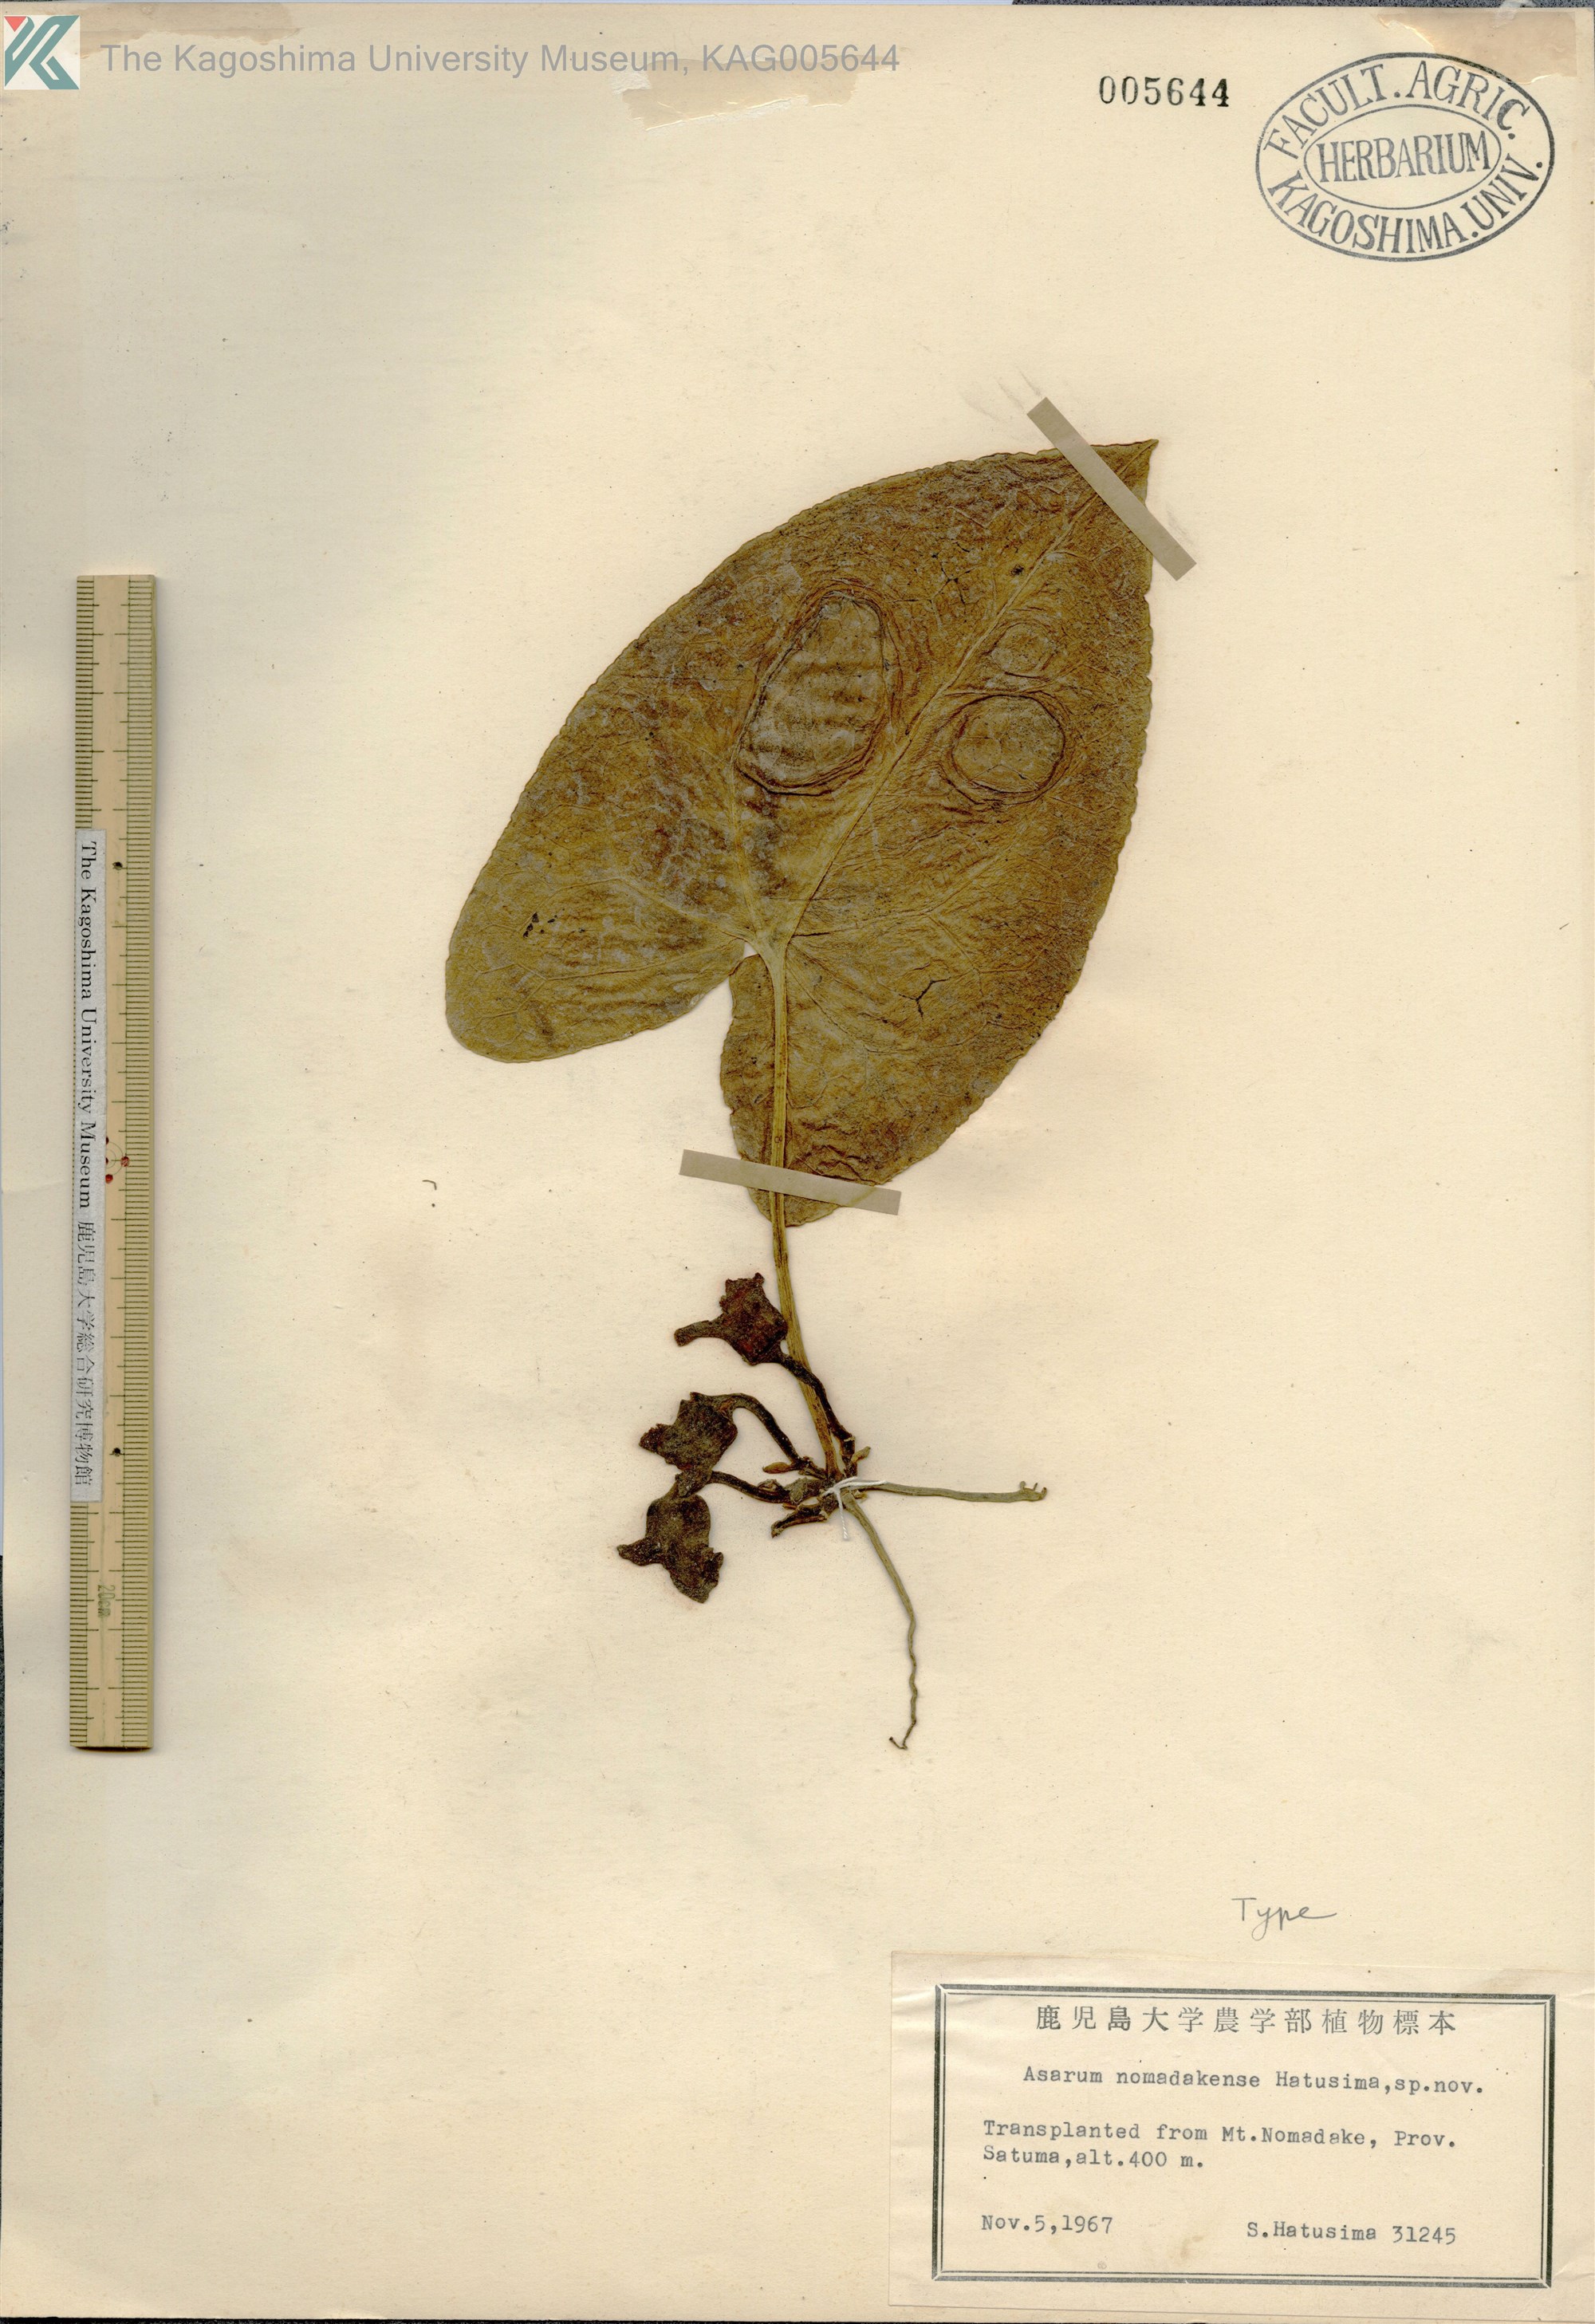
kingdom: Plantae
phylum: Tracheophyta
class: Magnoliopsida
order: Piperales
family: Aristolochiaceae
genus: Asarum
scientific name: Asarum nomadakense
